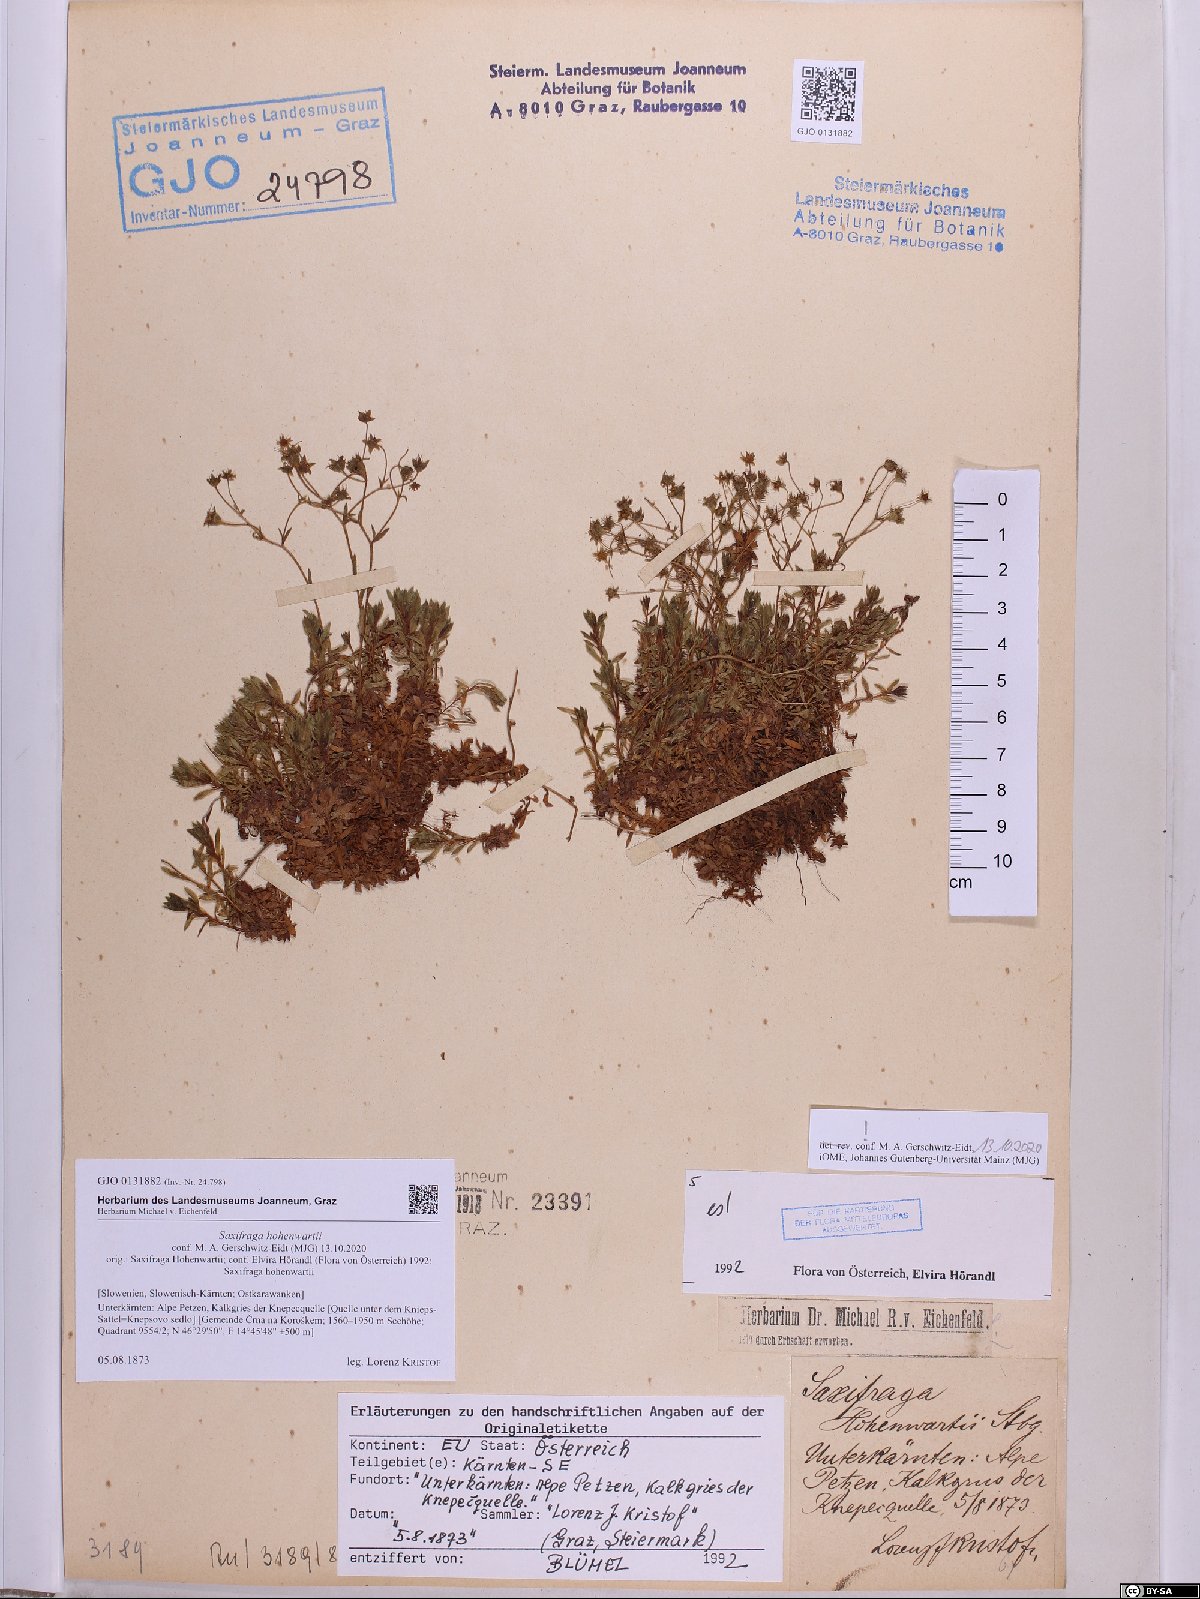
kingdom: Plantae
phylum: Tracheophyta
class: Magnoliopsida
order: Saxifragales
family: Saxifragaceae
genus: Saxifraga
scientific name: Saxifraga hohenwartii
